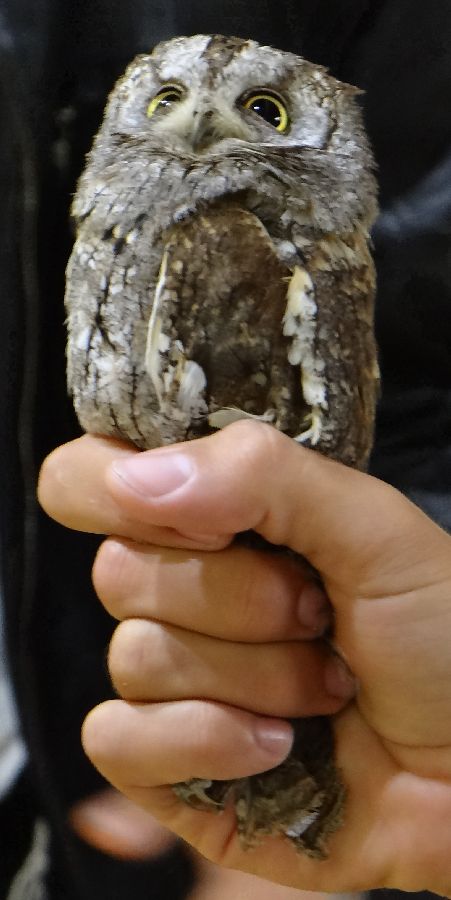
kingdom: Animalia
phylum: Chordata
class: Aves
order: Strigiformes
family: Strigidae
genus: Otus
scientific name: Otus scops
